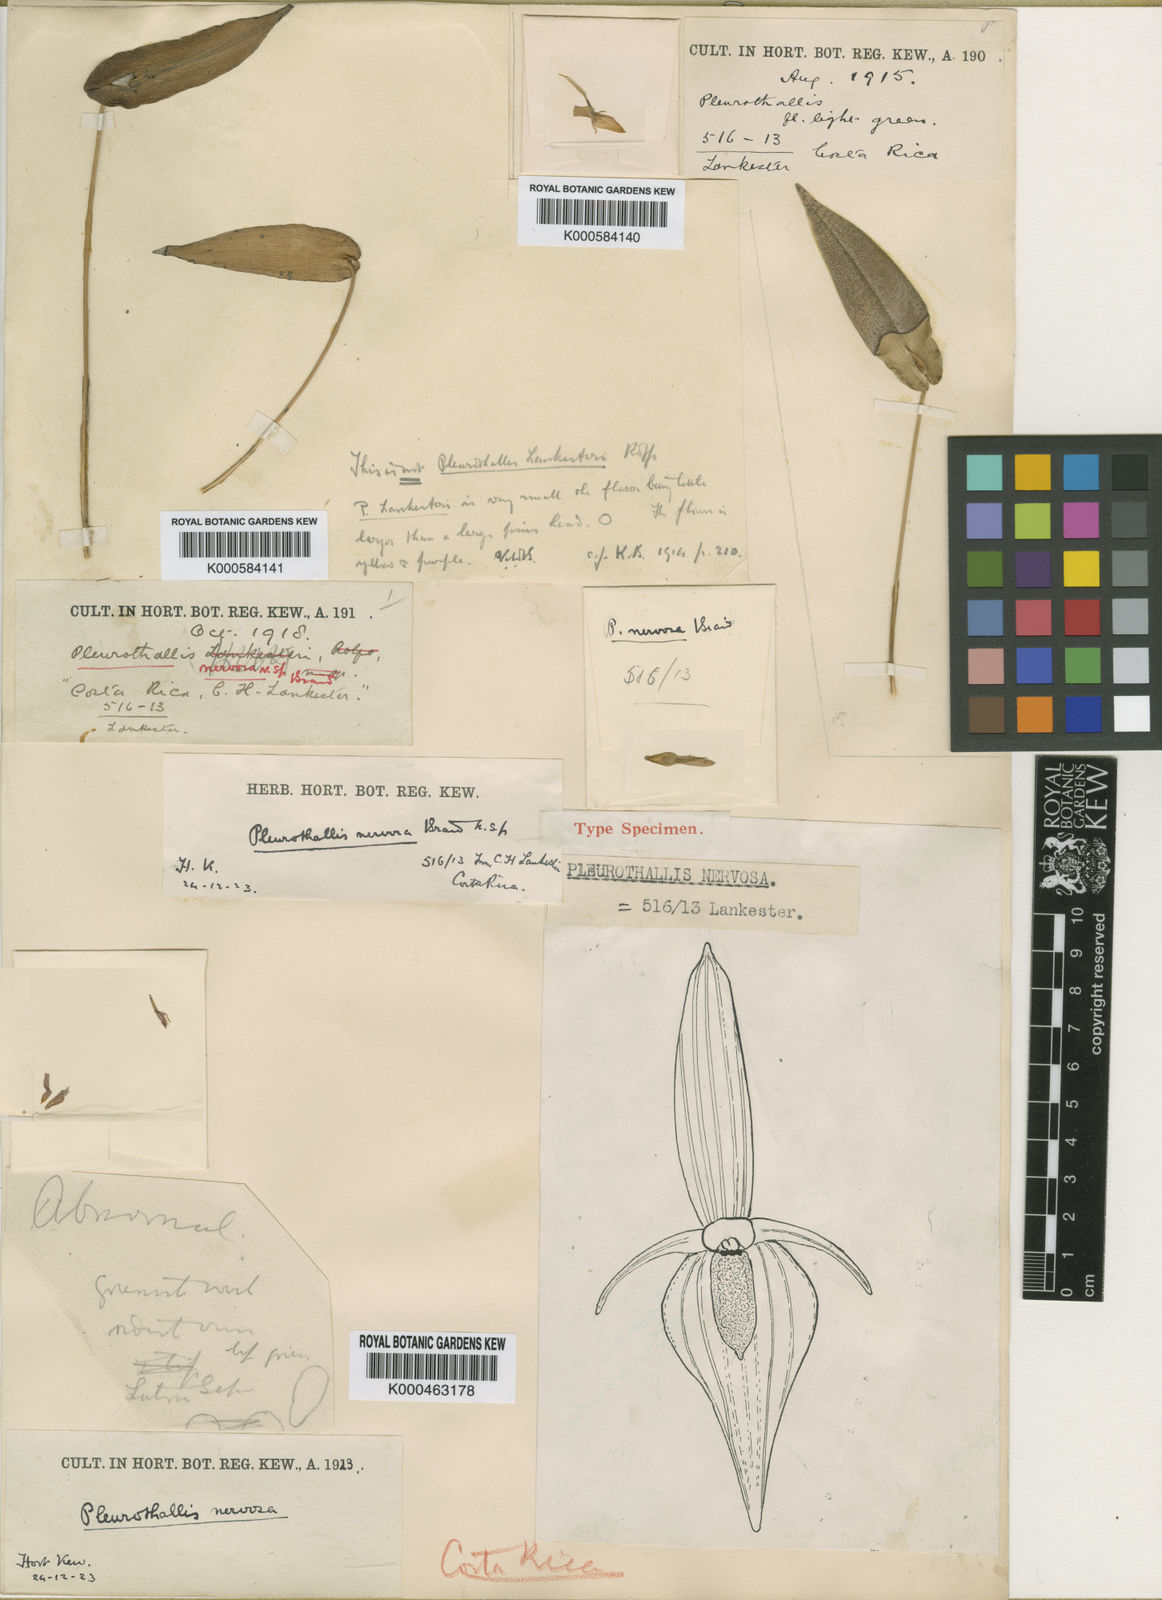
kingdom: Plantae
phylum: Tracheophyta
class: Liliopsida
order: Asparagales
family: Orchidaceae
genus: Pleurothallis
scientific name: Pleurothallis homalantha
